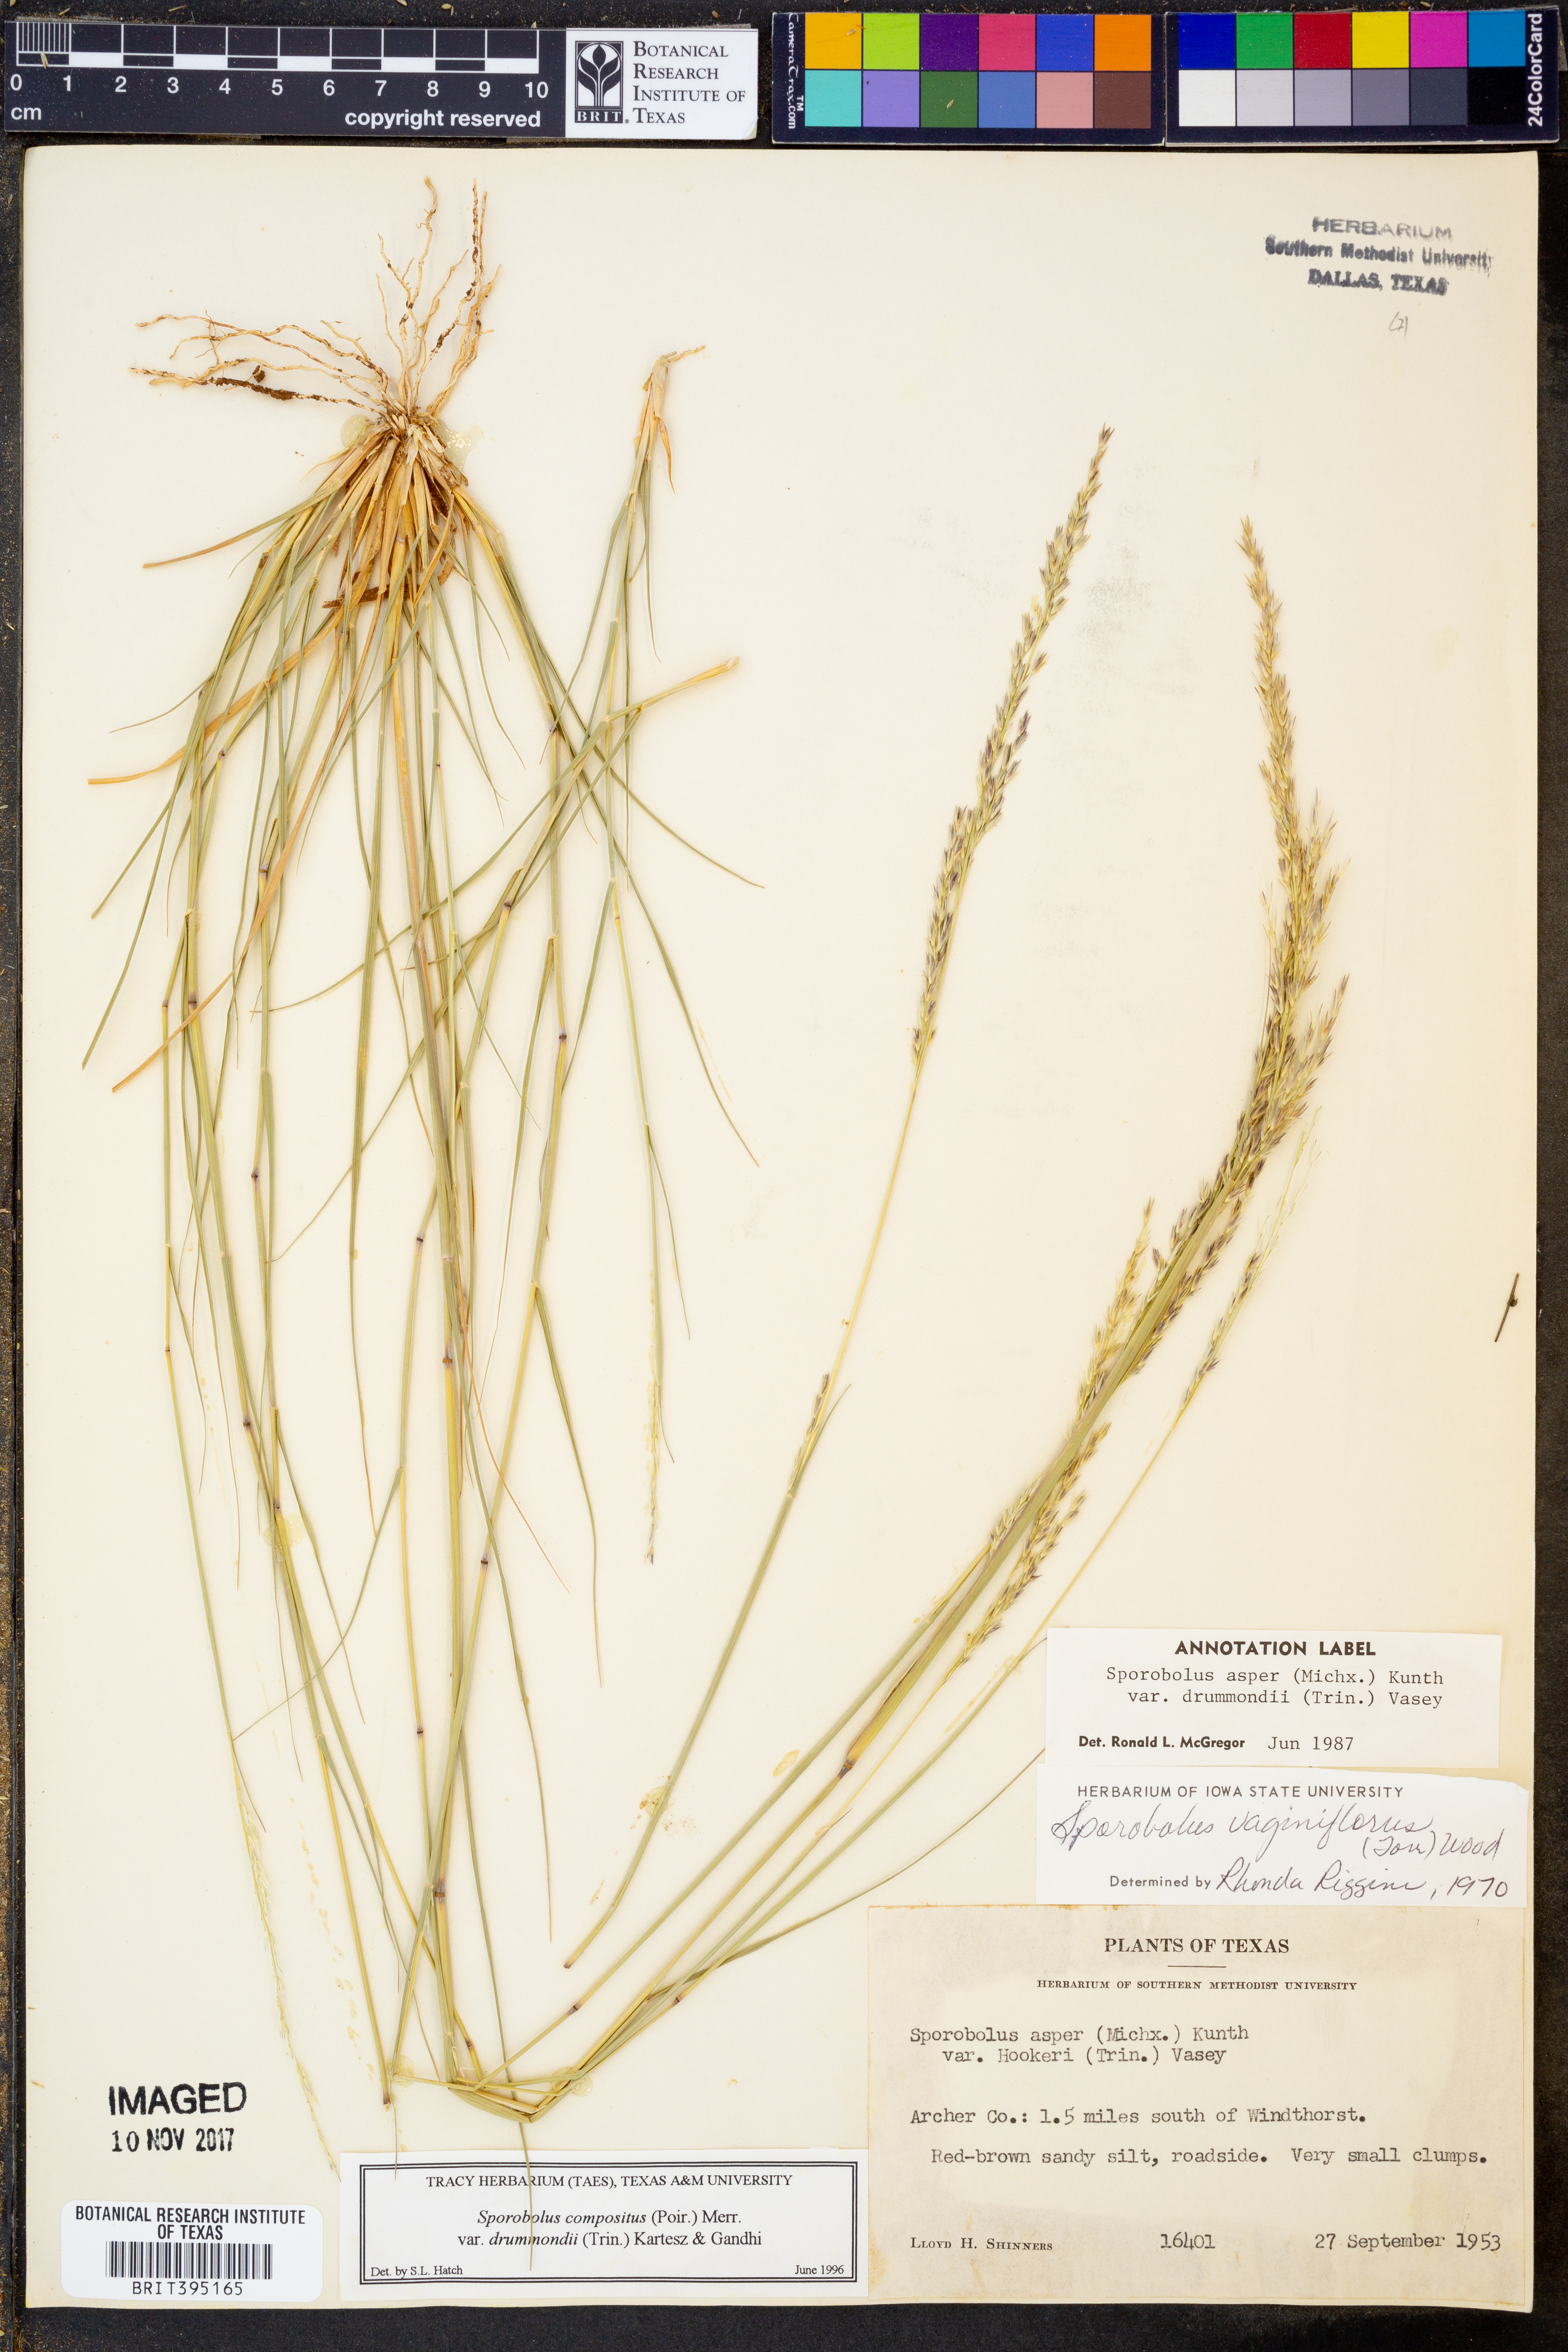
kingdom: Plantae
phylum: Tracheophyta
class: Liliopsida
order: Poales
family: Poaceae
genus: Sporobolus
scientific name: Sporobolus compositus
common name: Rough dropseed
